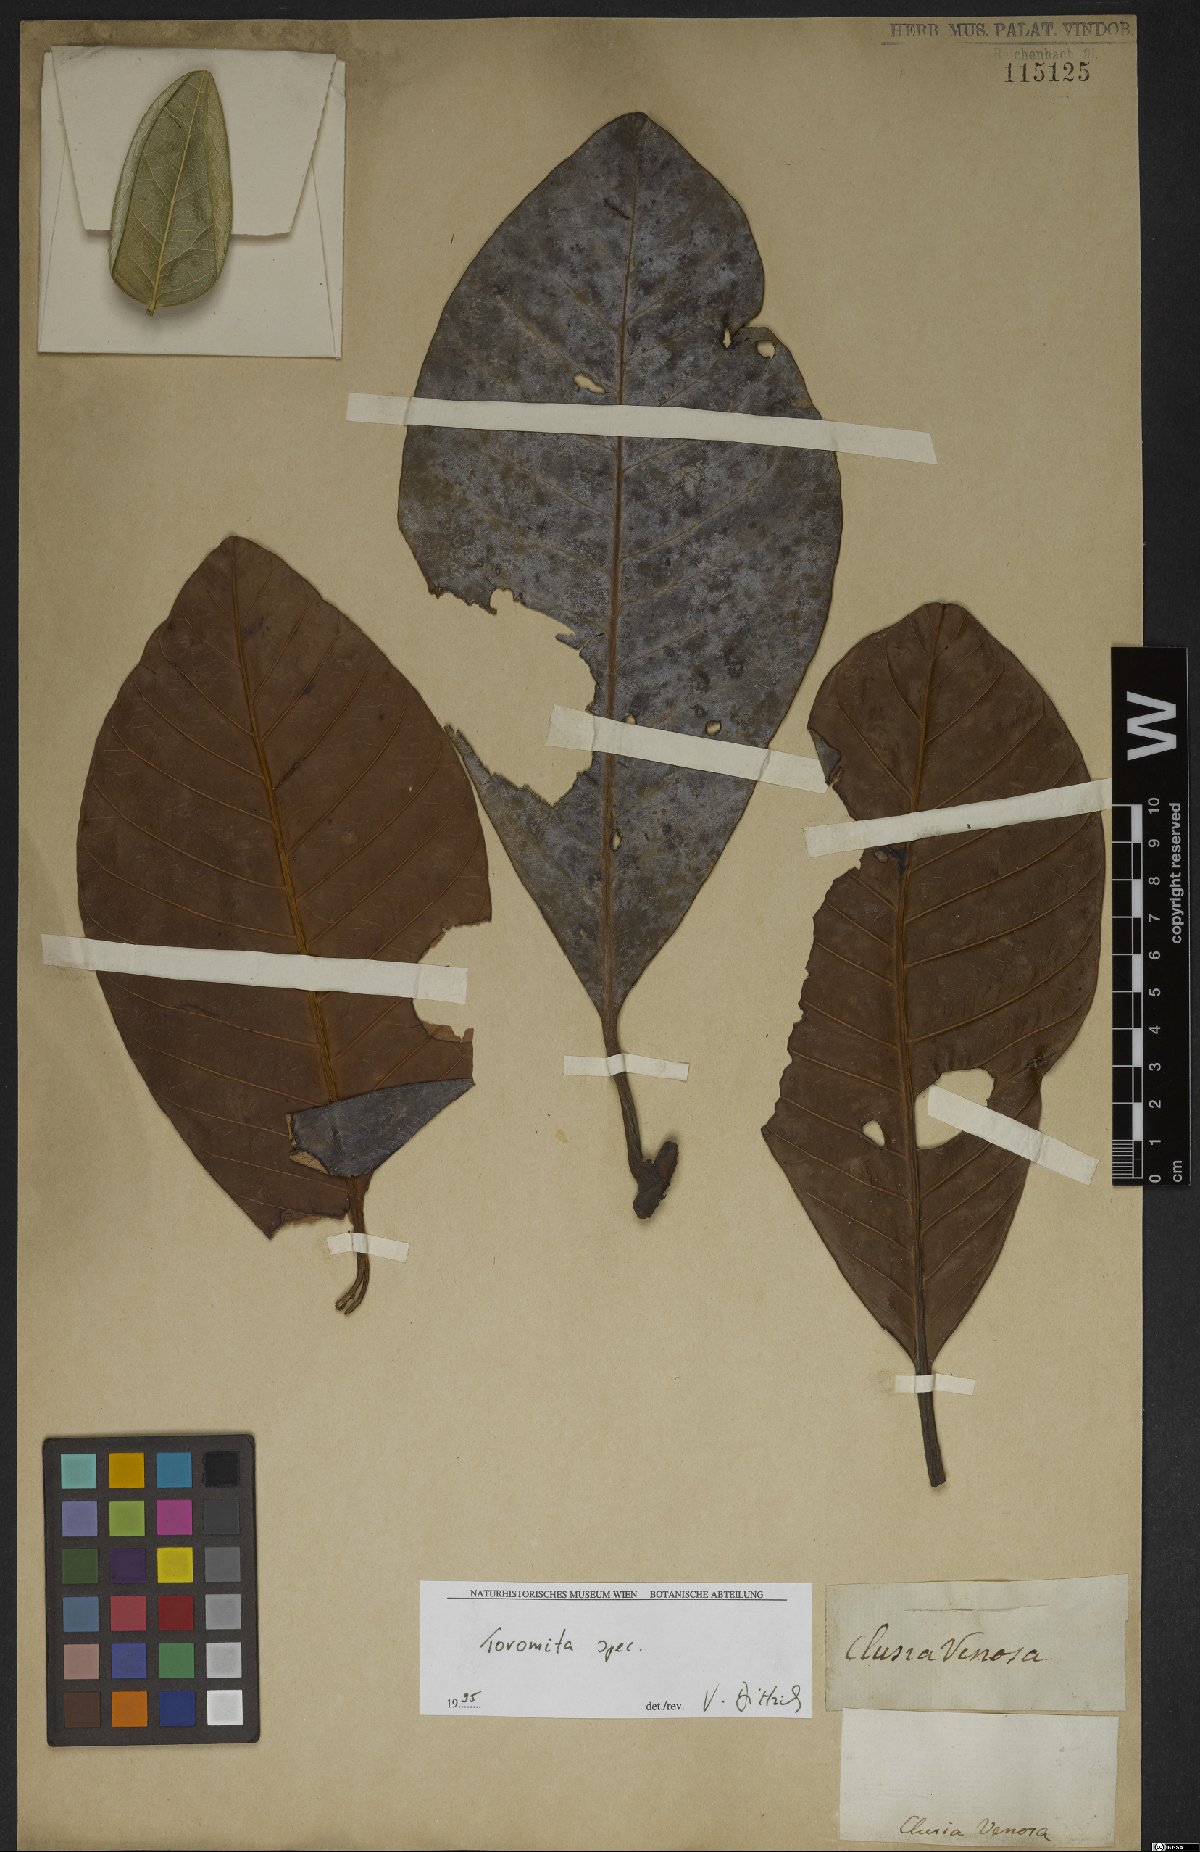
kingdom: Plantae
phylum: Tracheophyta
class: Magnoliopsida
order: Malpighiales
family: Clusiaceae
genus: Tovomita
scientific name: Tovomita
